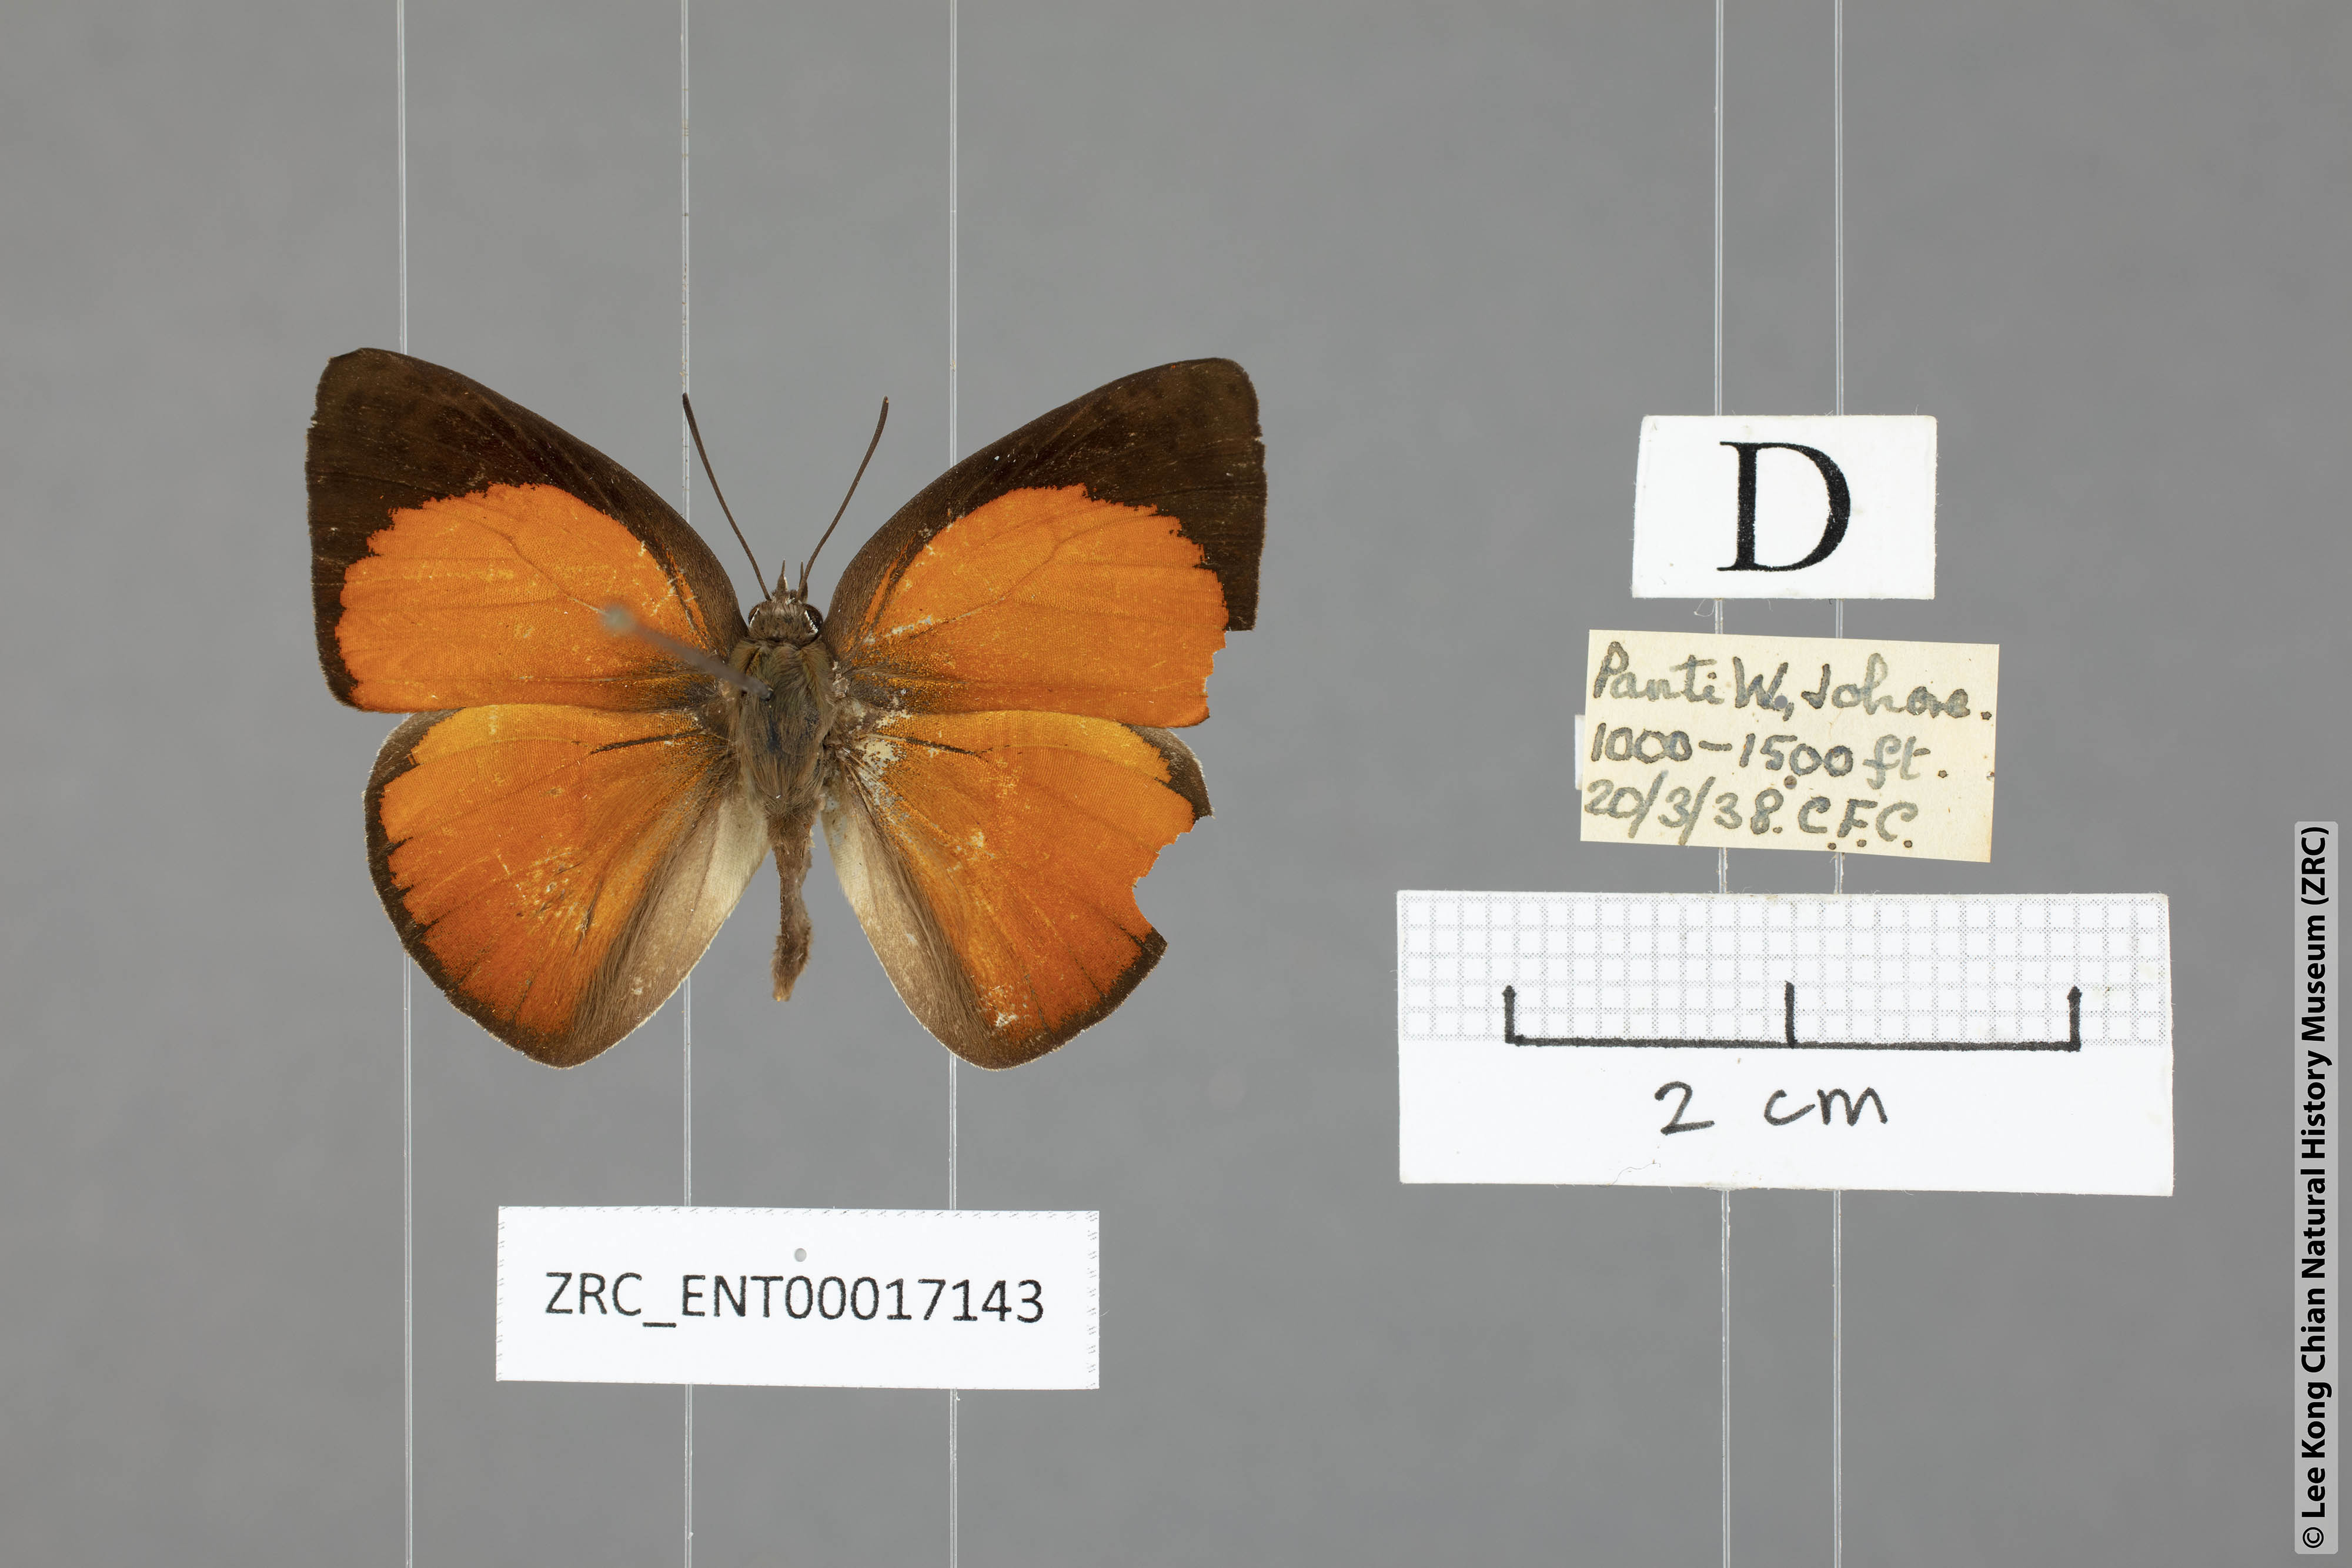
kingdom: Animalia
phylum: Arthropoda
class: Insecta
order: Lepidoptera
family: Lycaenidae
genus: Curetis
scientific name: Curetis regula
